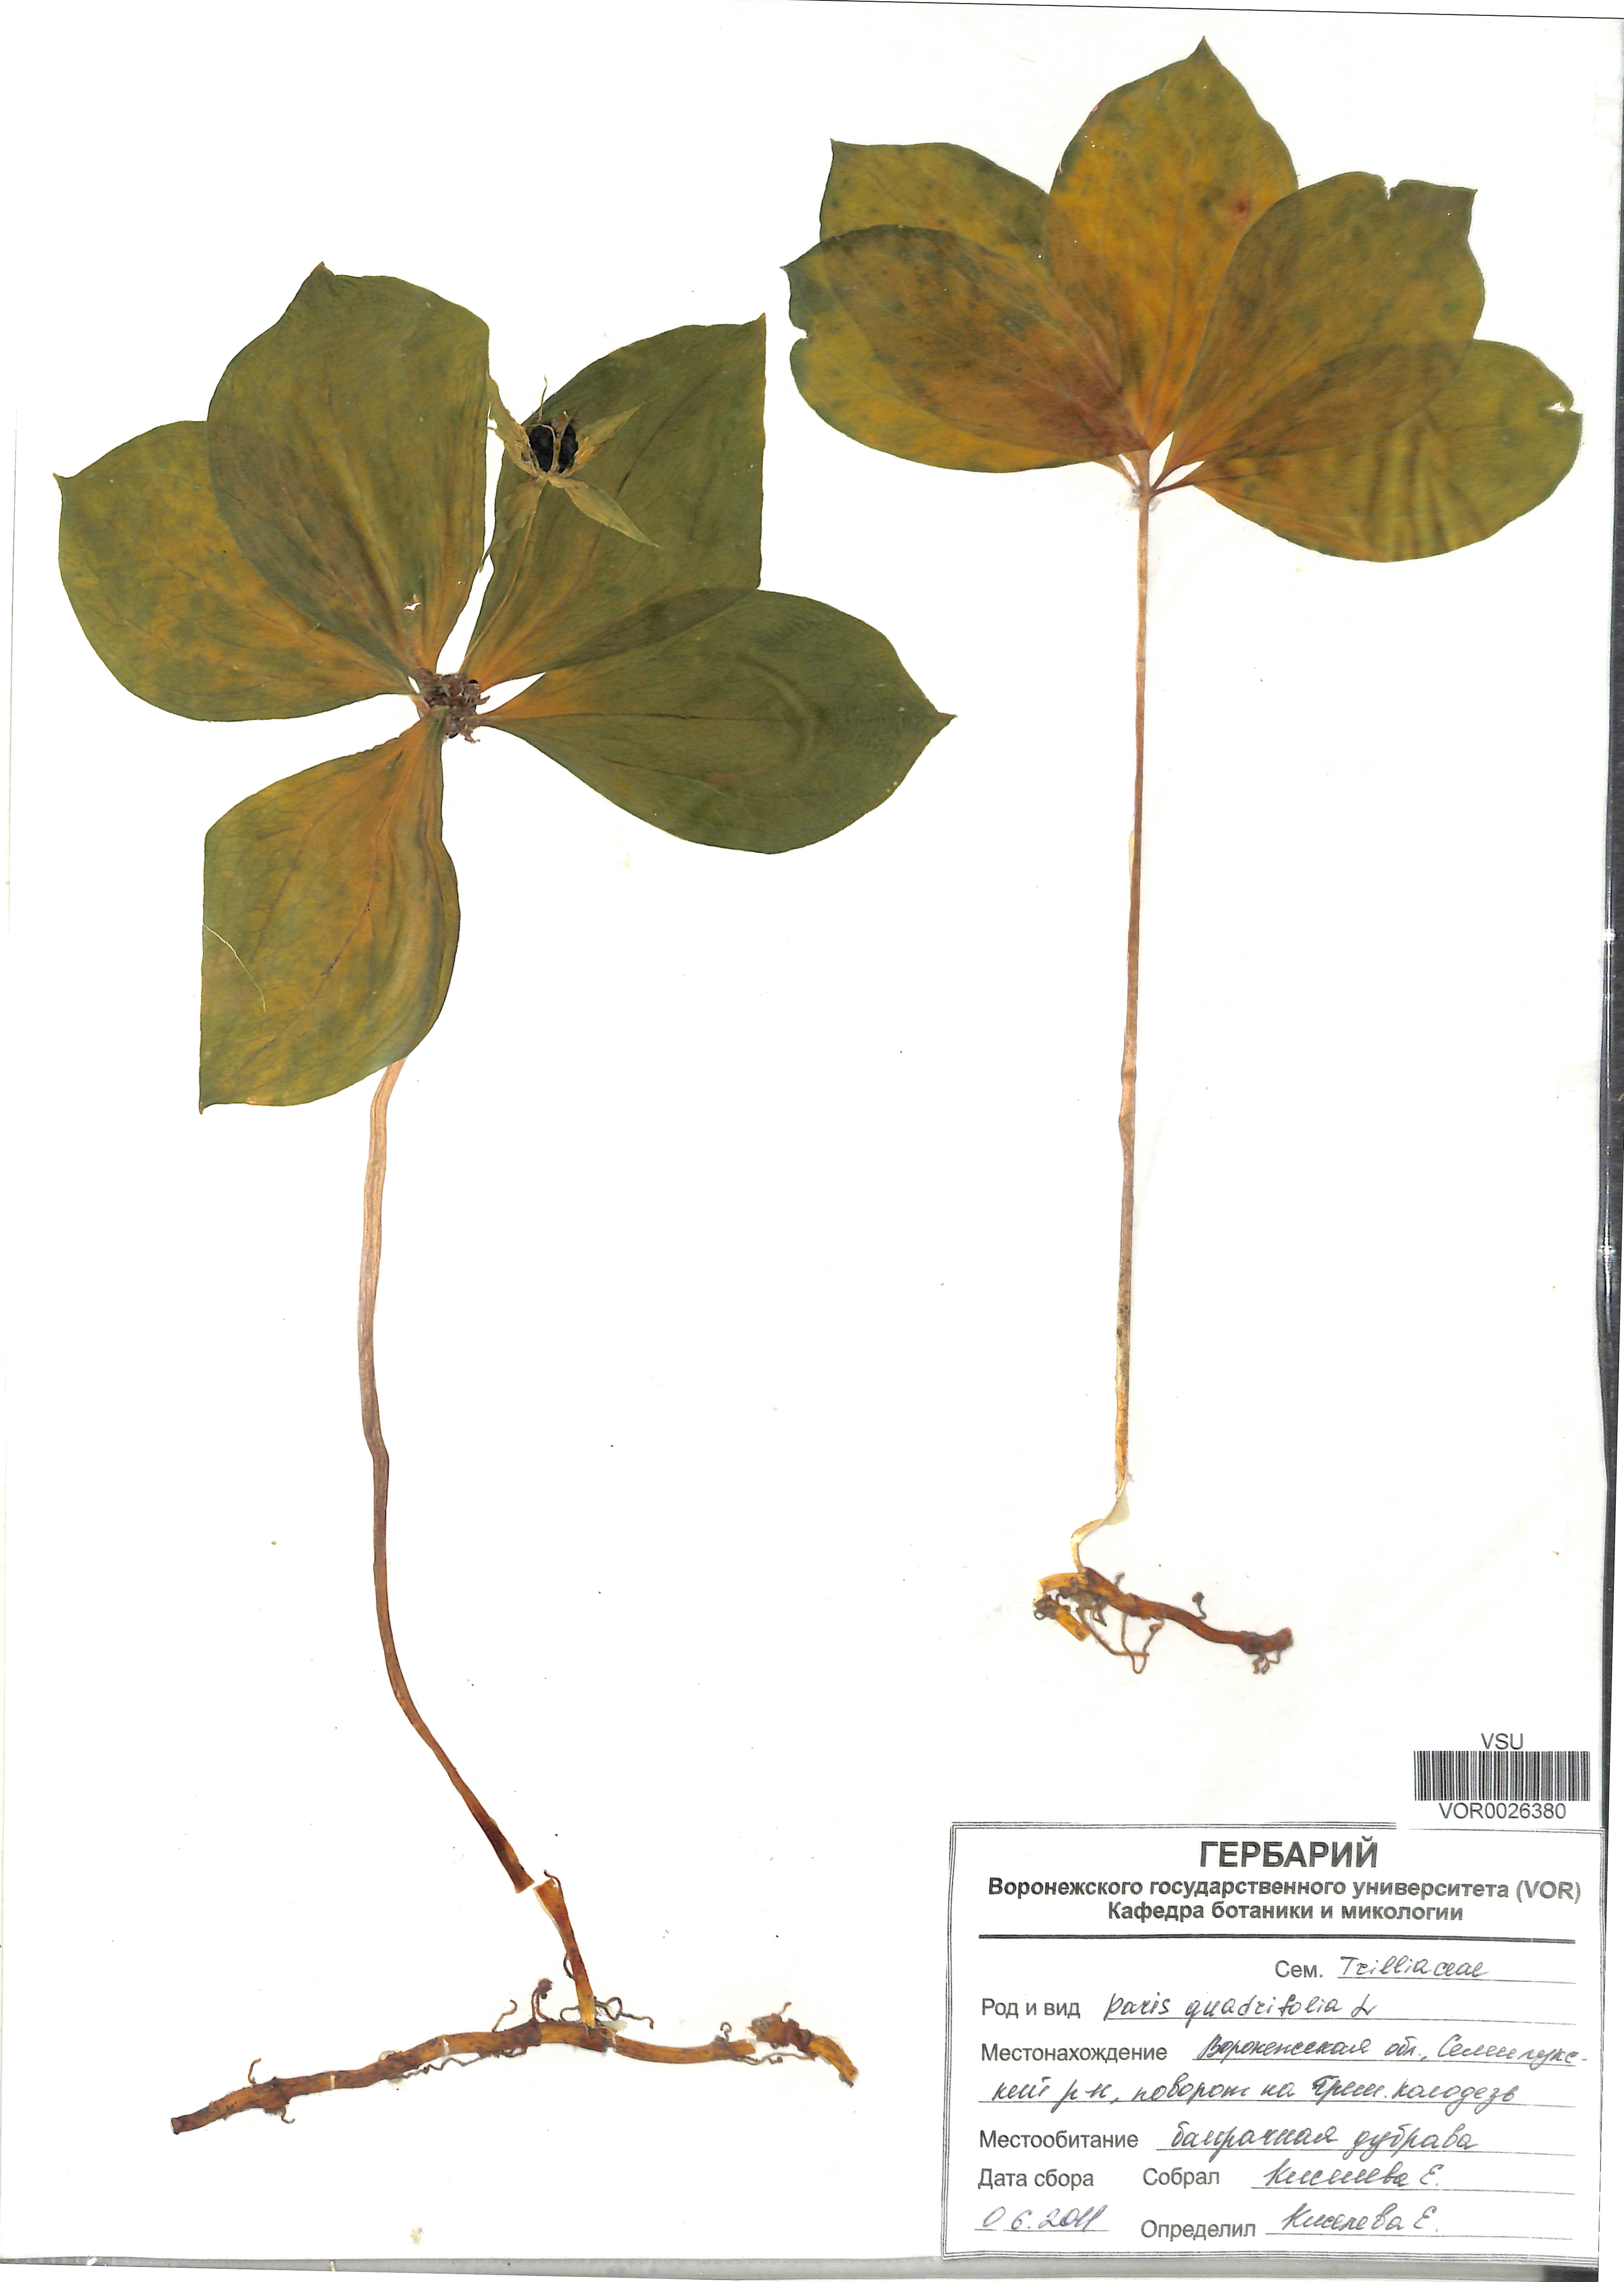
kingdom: Plantae
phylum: Tracheophyta
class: Liliopsida
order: Liliales
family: Melanthiaceae
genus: Paris
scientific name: Paris quadrifolia
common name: Herb-paris
